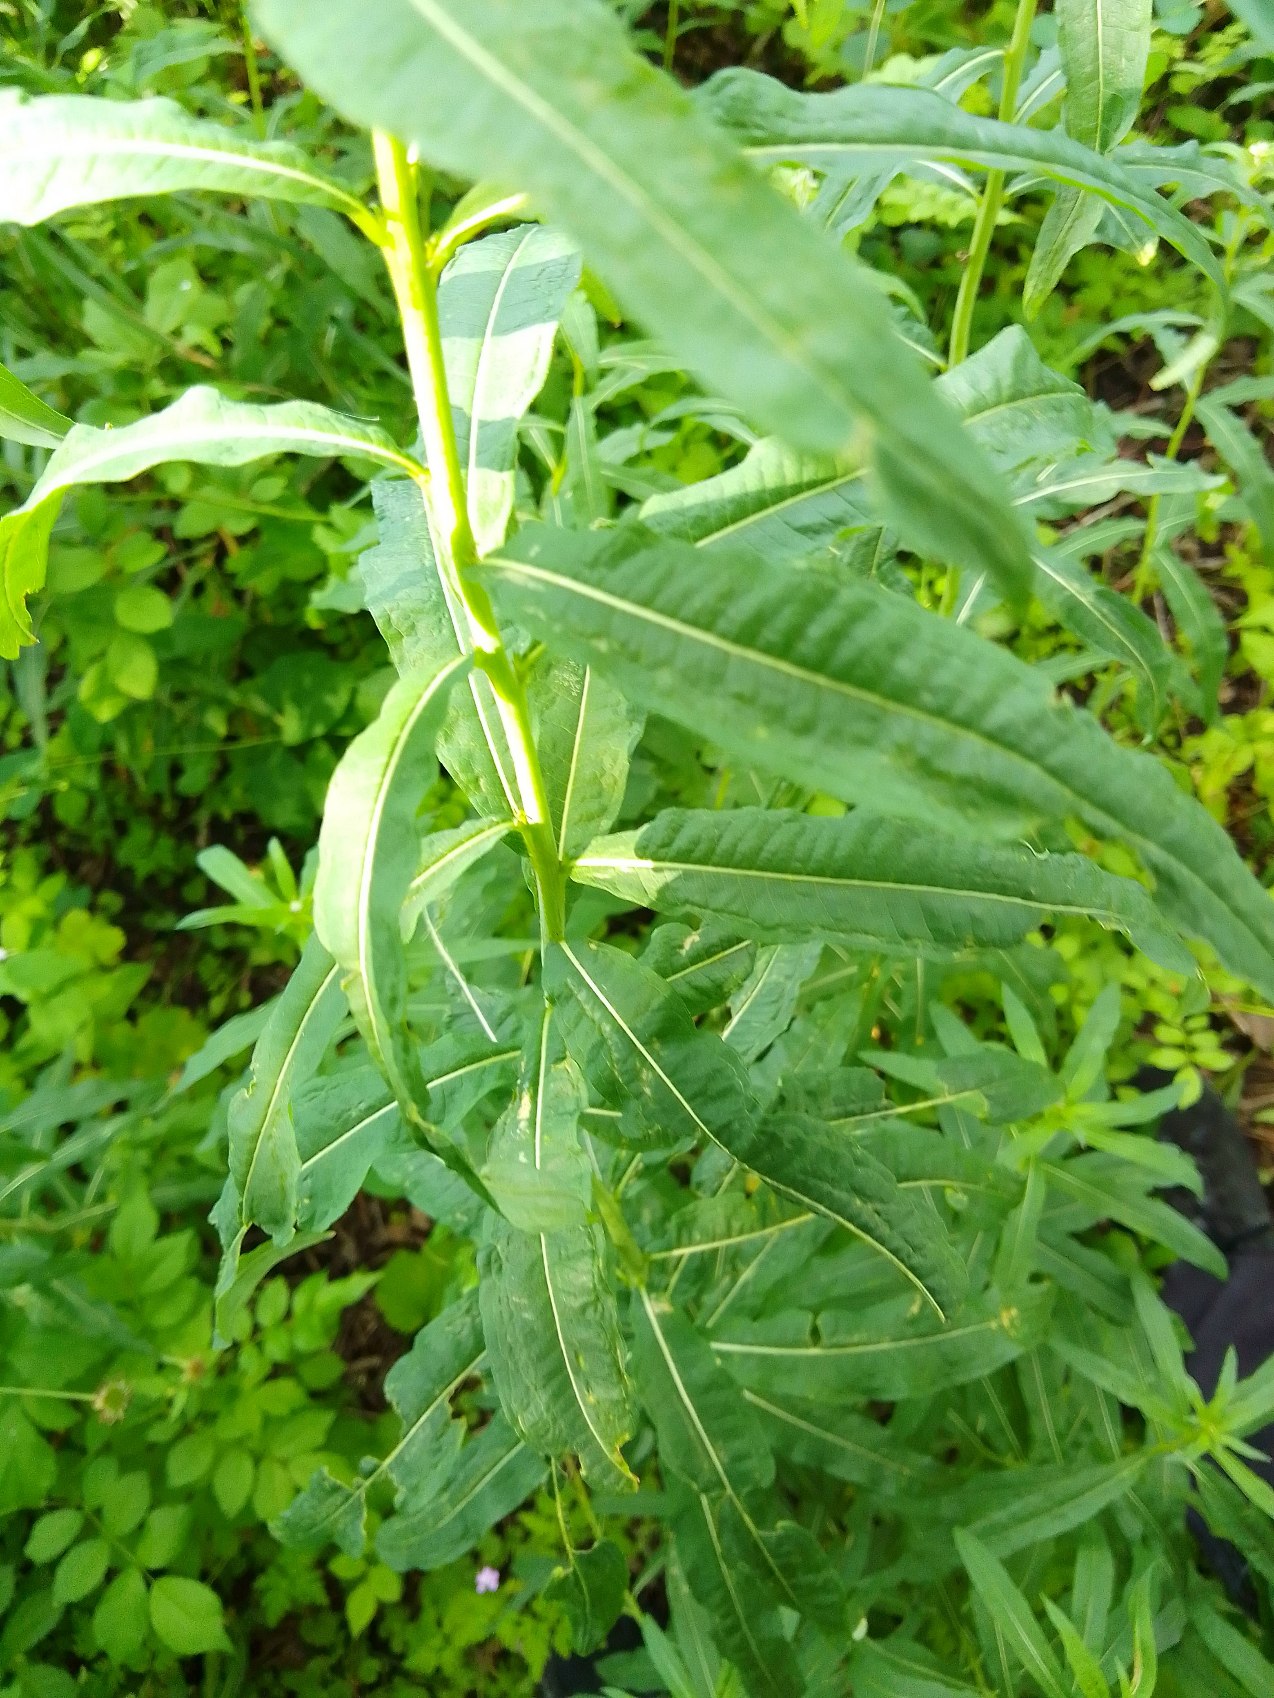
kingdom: Plantae
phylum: Tracheophyta
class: Magnoliopsida
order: Myrtales
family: Onagraceae
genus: Chamaenerion
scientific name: Chamaenerion angustifolium
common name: Gederams
